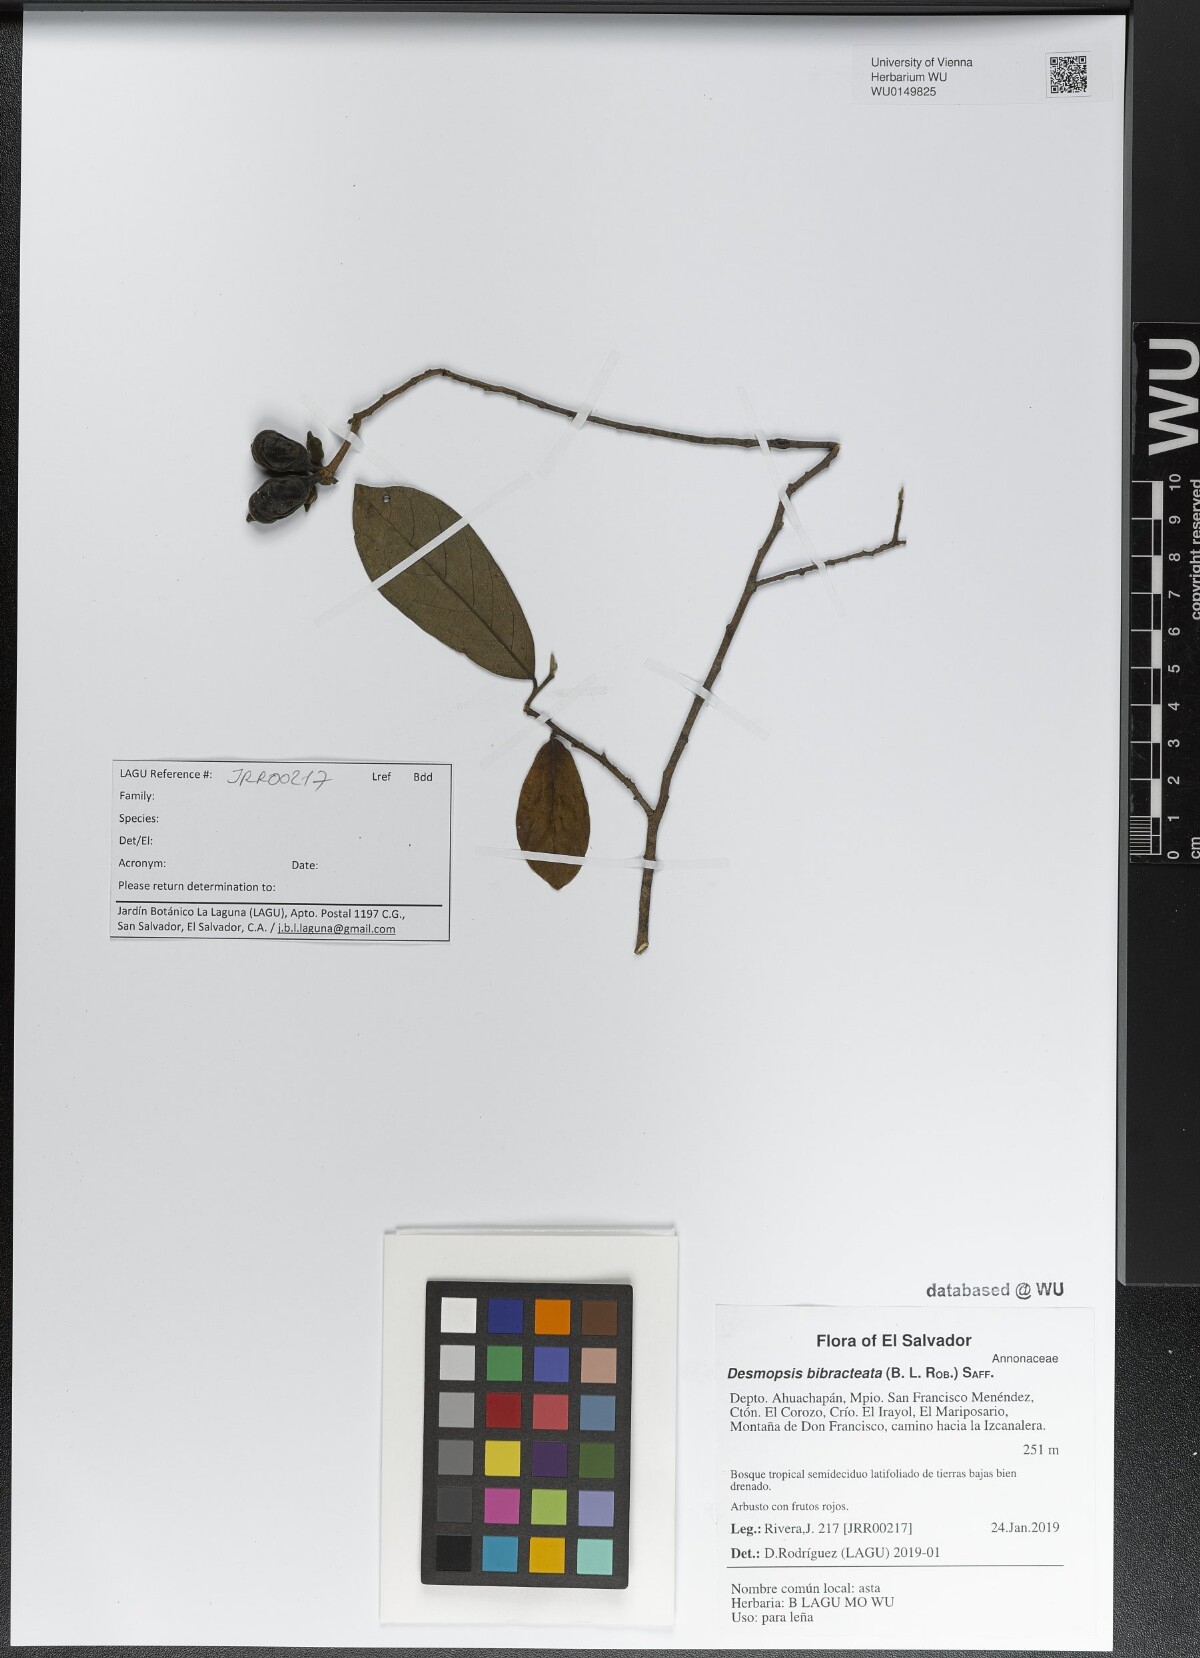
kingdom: Plantae
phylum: Tracheophyta
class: Magnoliopsida
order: Magnoliales
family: Annonaceae
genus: Desmopsis
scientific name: Desmopsis bibracteata
